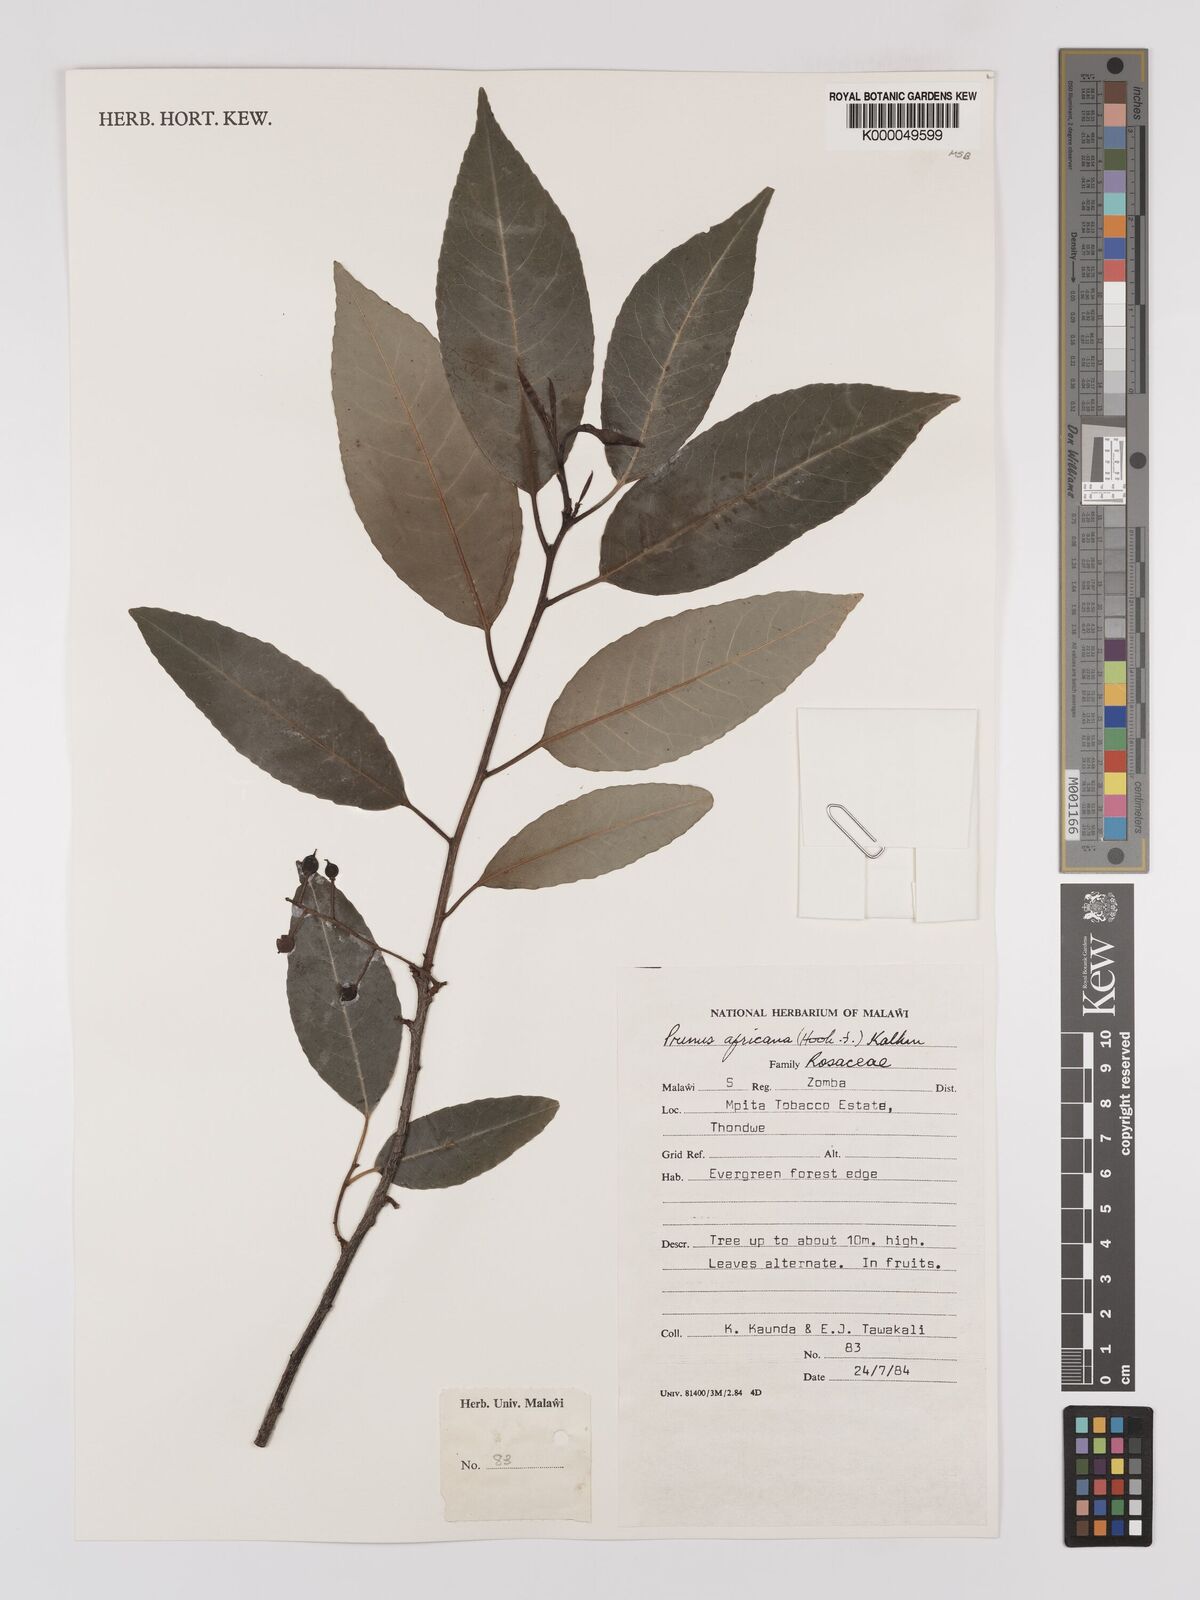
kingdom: Plantae
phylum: Tracheophyta
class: Magnoliopsida
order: Rosales
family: Rosaceae
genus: Prunus
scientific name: Prunus africana
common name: African cherry
